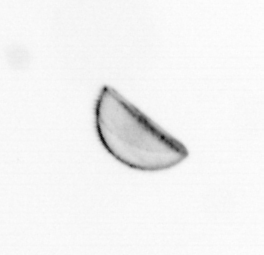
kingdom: Chromista
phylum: Ochrophyta
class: Bacillariophyceae
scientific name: Bacillariophyceae
